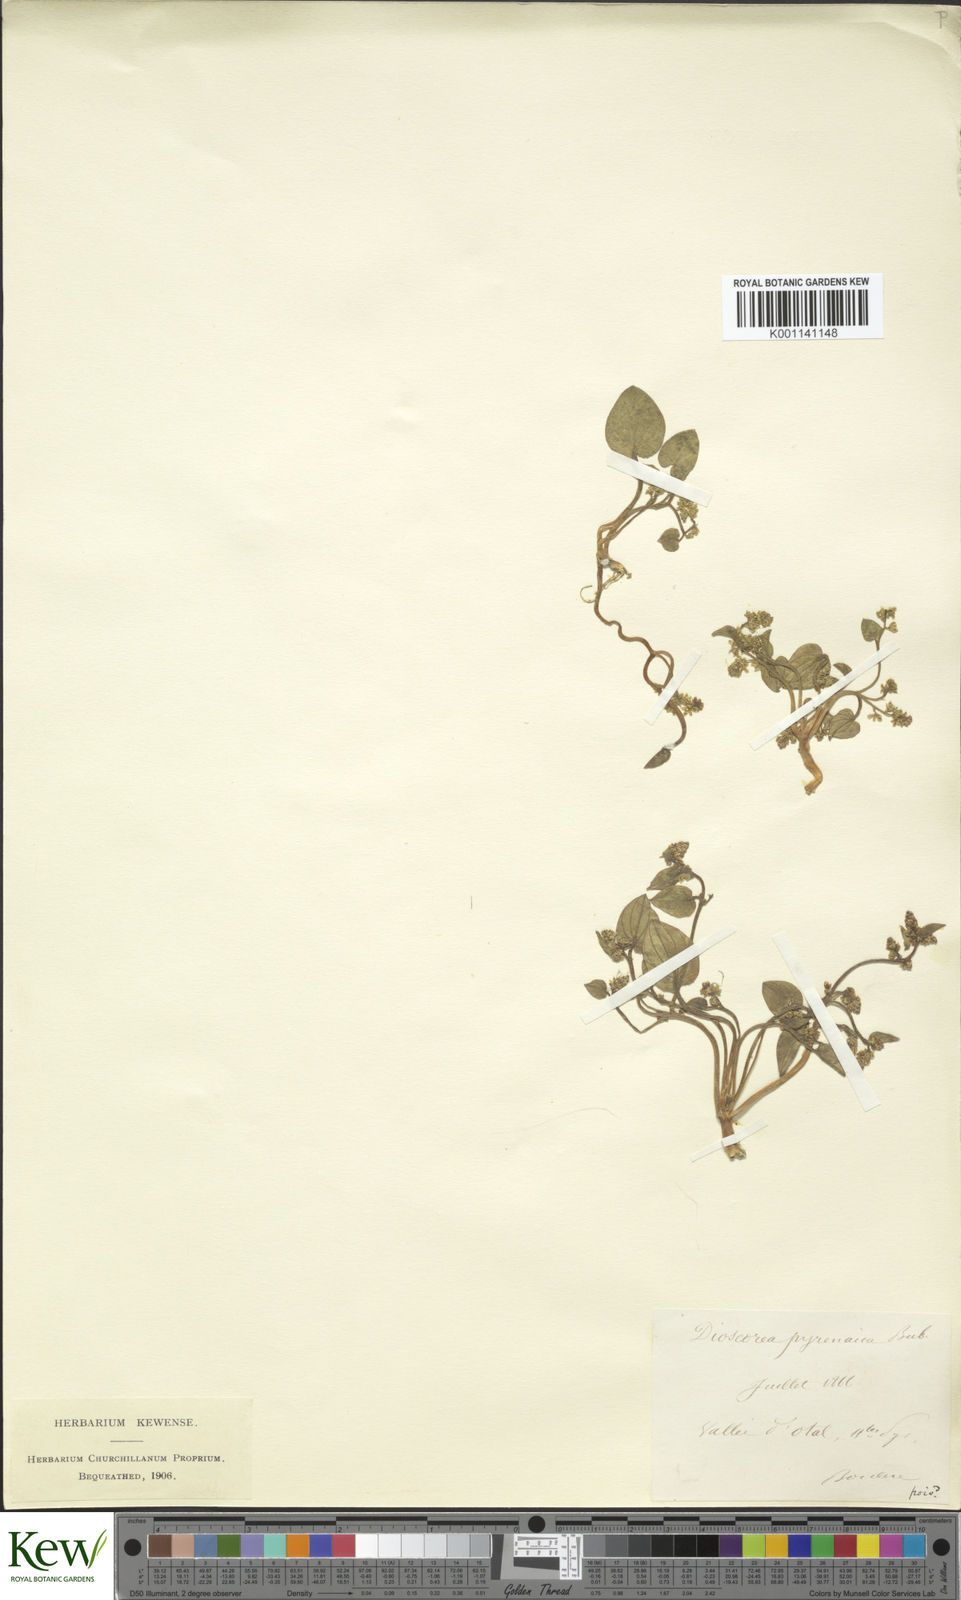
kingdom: Plantae
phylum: Tracheophyta
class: Liliopsida
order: Dioscoreales
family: Dioscoreaceae
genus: Dioscorea
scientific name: Dioscorea
